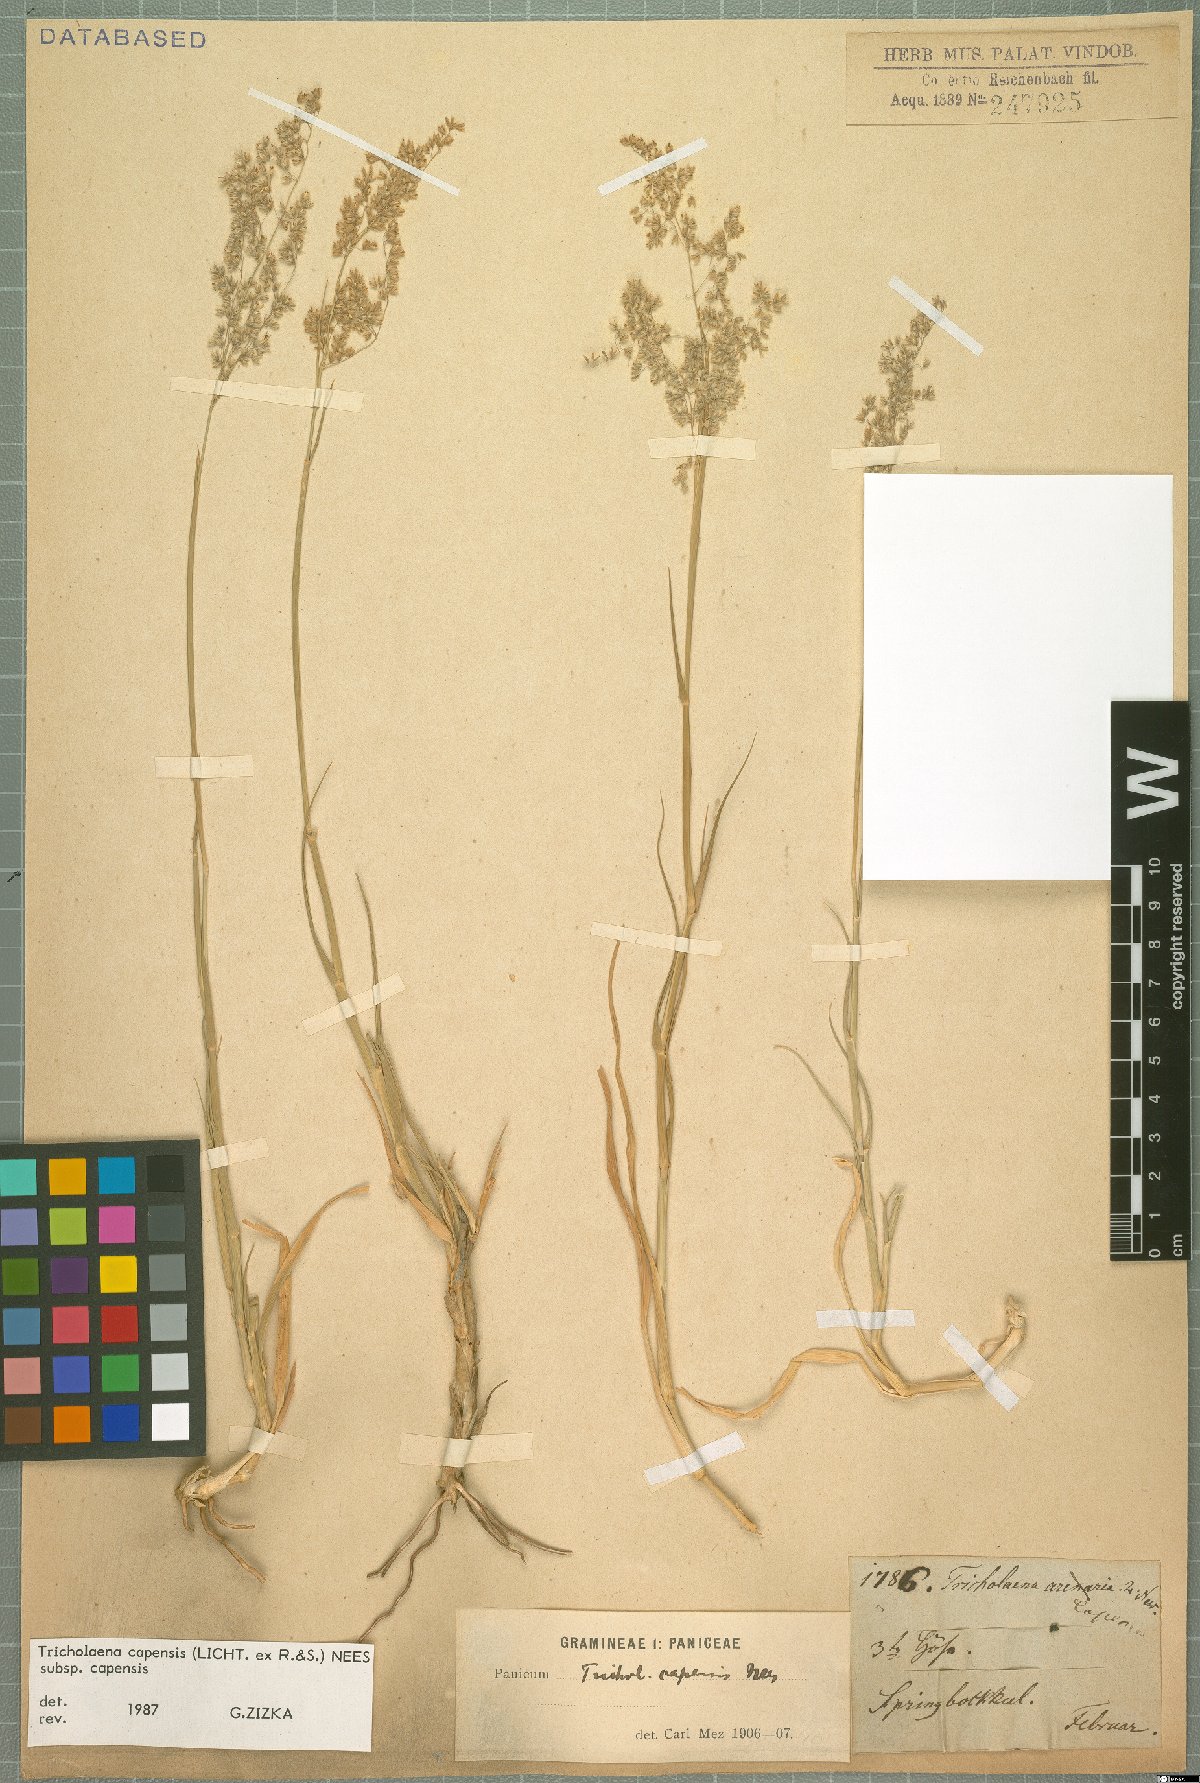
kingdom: Plantae
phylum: Tracheophyta
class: Liliopsida
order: Poales
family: Poaceae
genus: Tricholaena
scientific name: Tricholaena capensis
